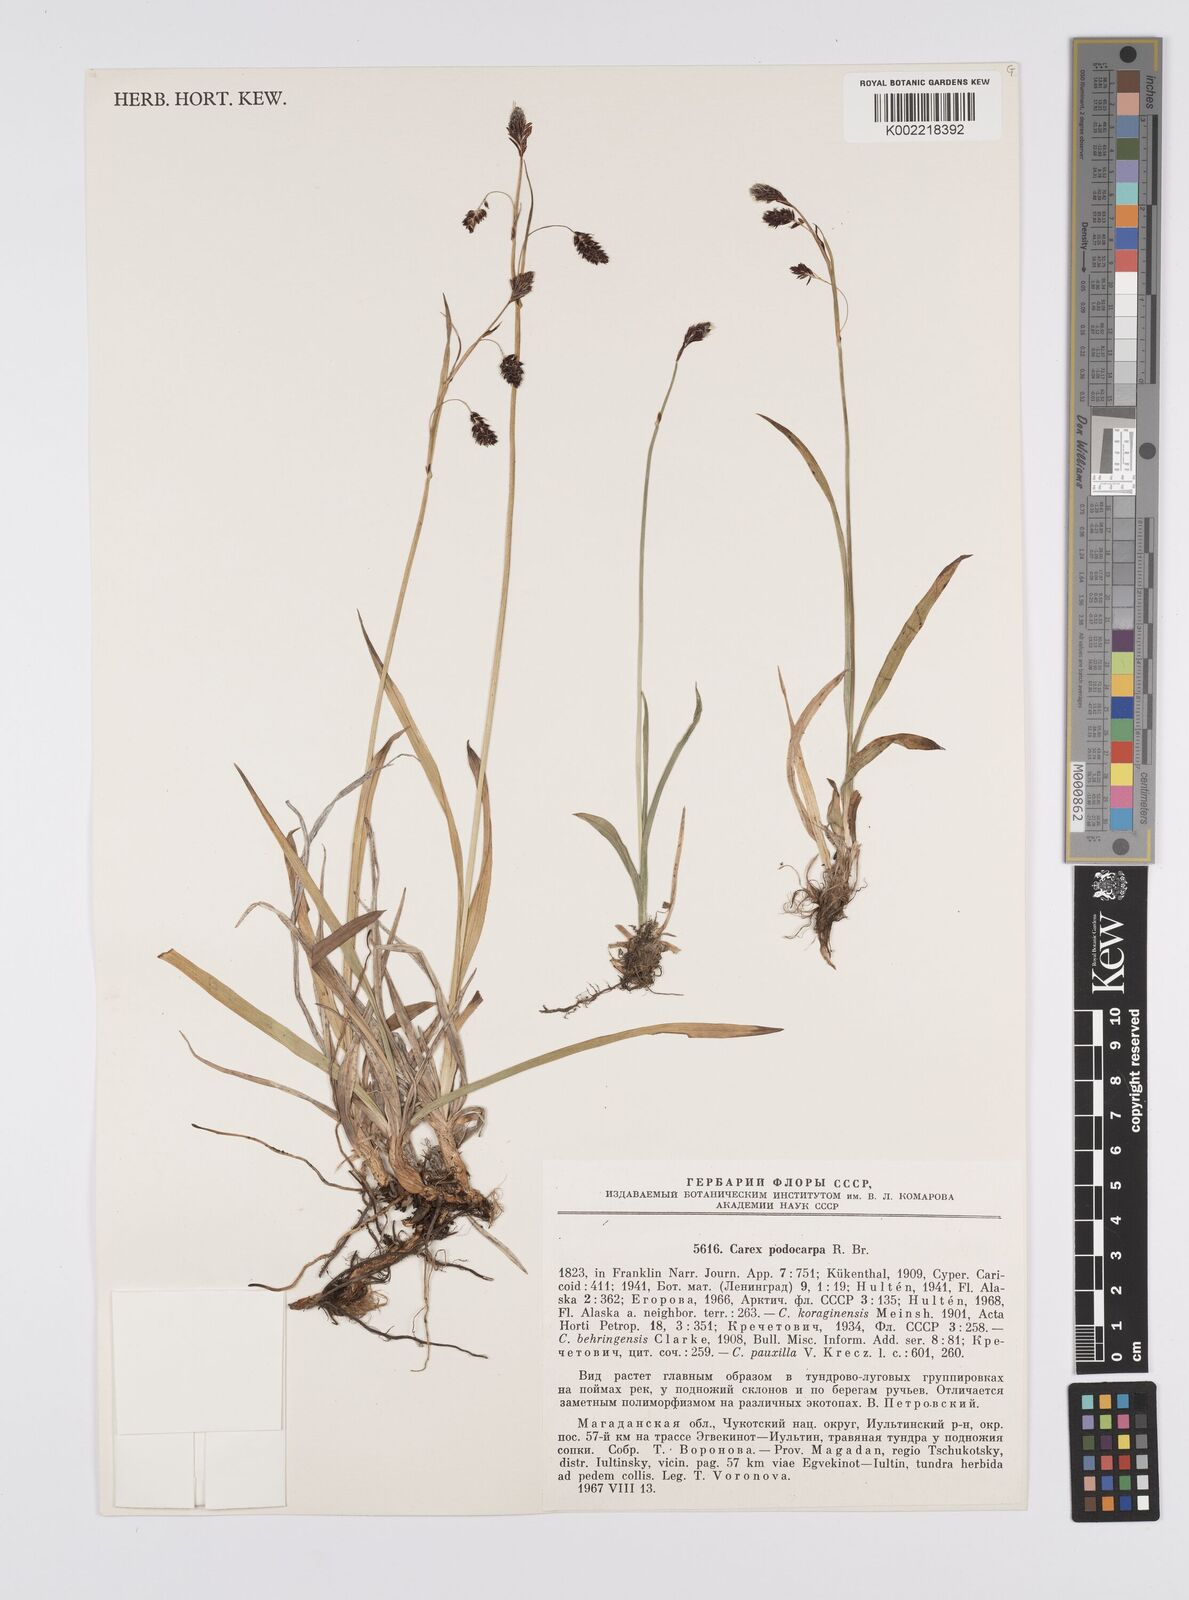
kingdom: Plantae
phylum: Tracheophyta
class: Liliopsida
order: Poales
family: Cyperaceae
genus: Carex
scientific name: Carex podocarpa
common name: Alpine sedge
